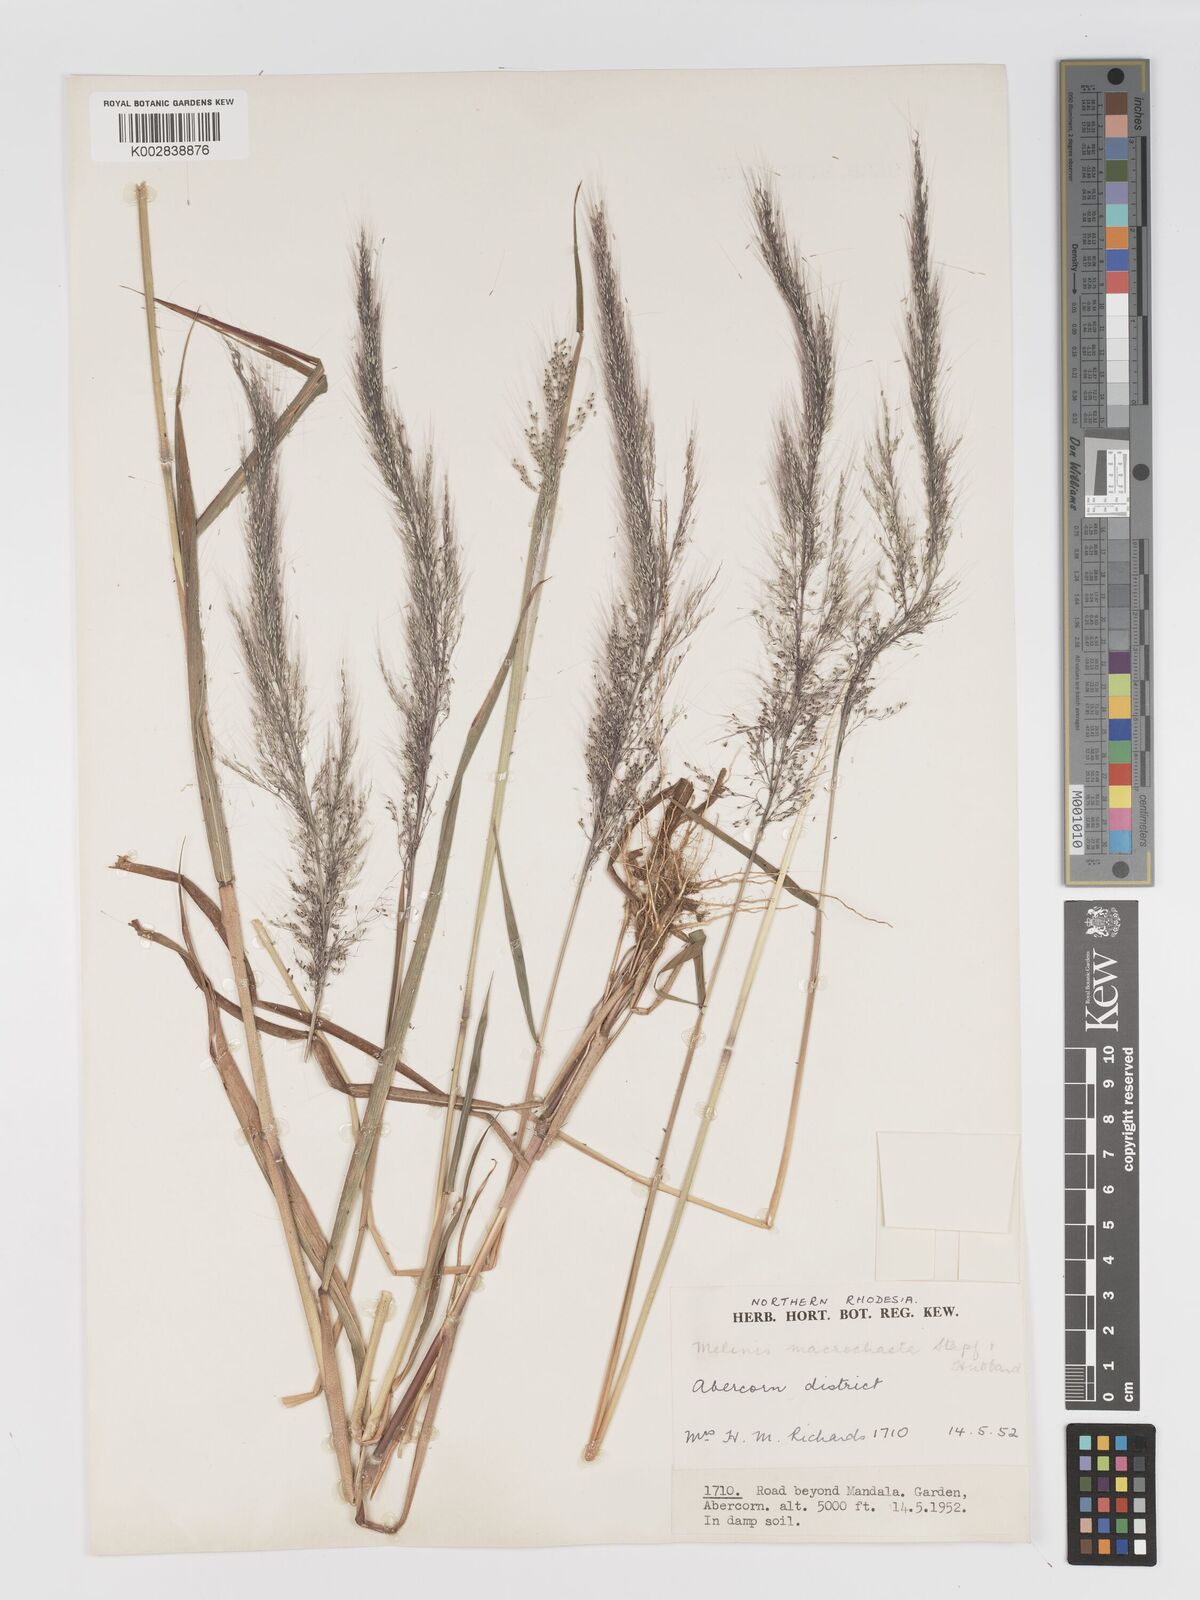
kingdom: Plantae
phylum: Tracheophyta
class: Liliopsida
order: Poales
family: Poaceae
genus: Melinis
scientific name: Melinis macrochaeta
